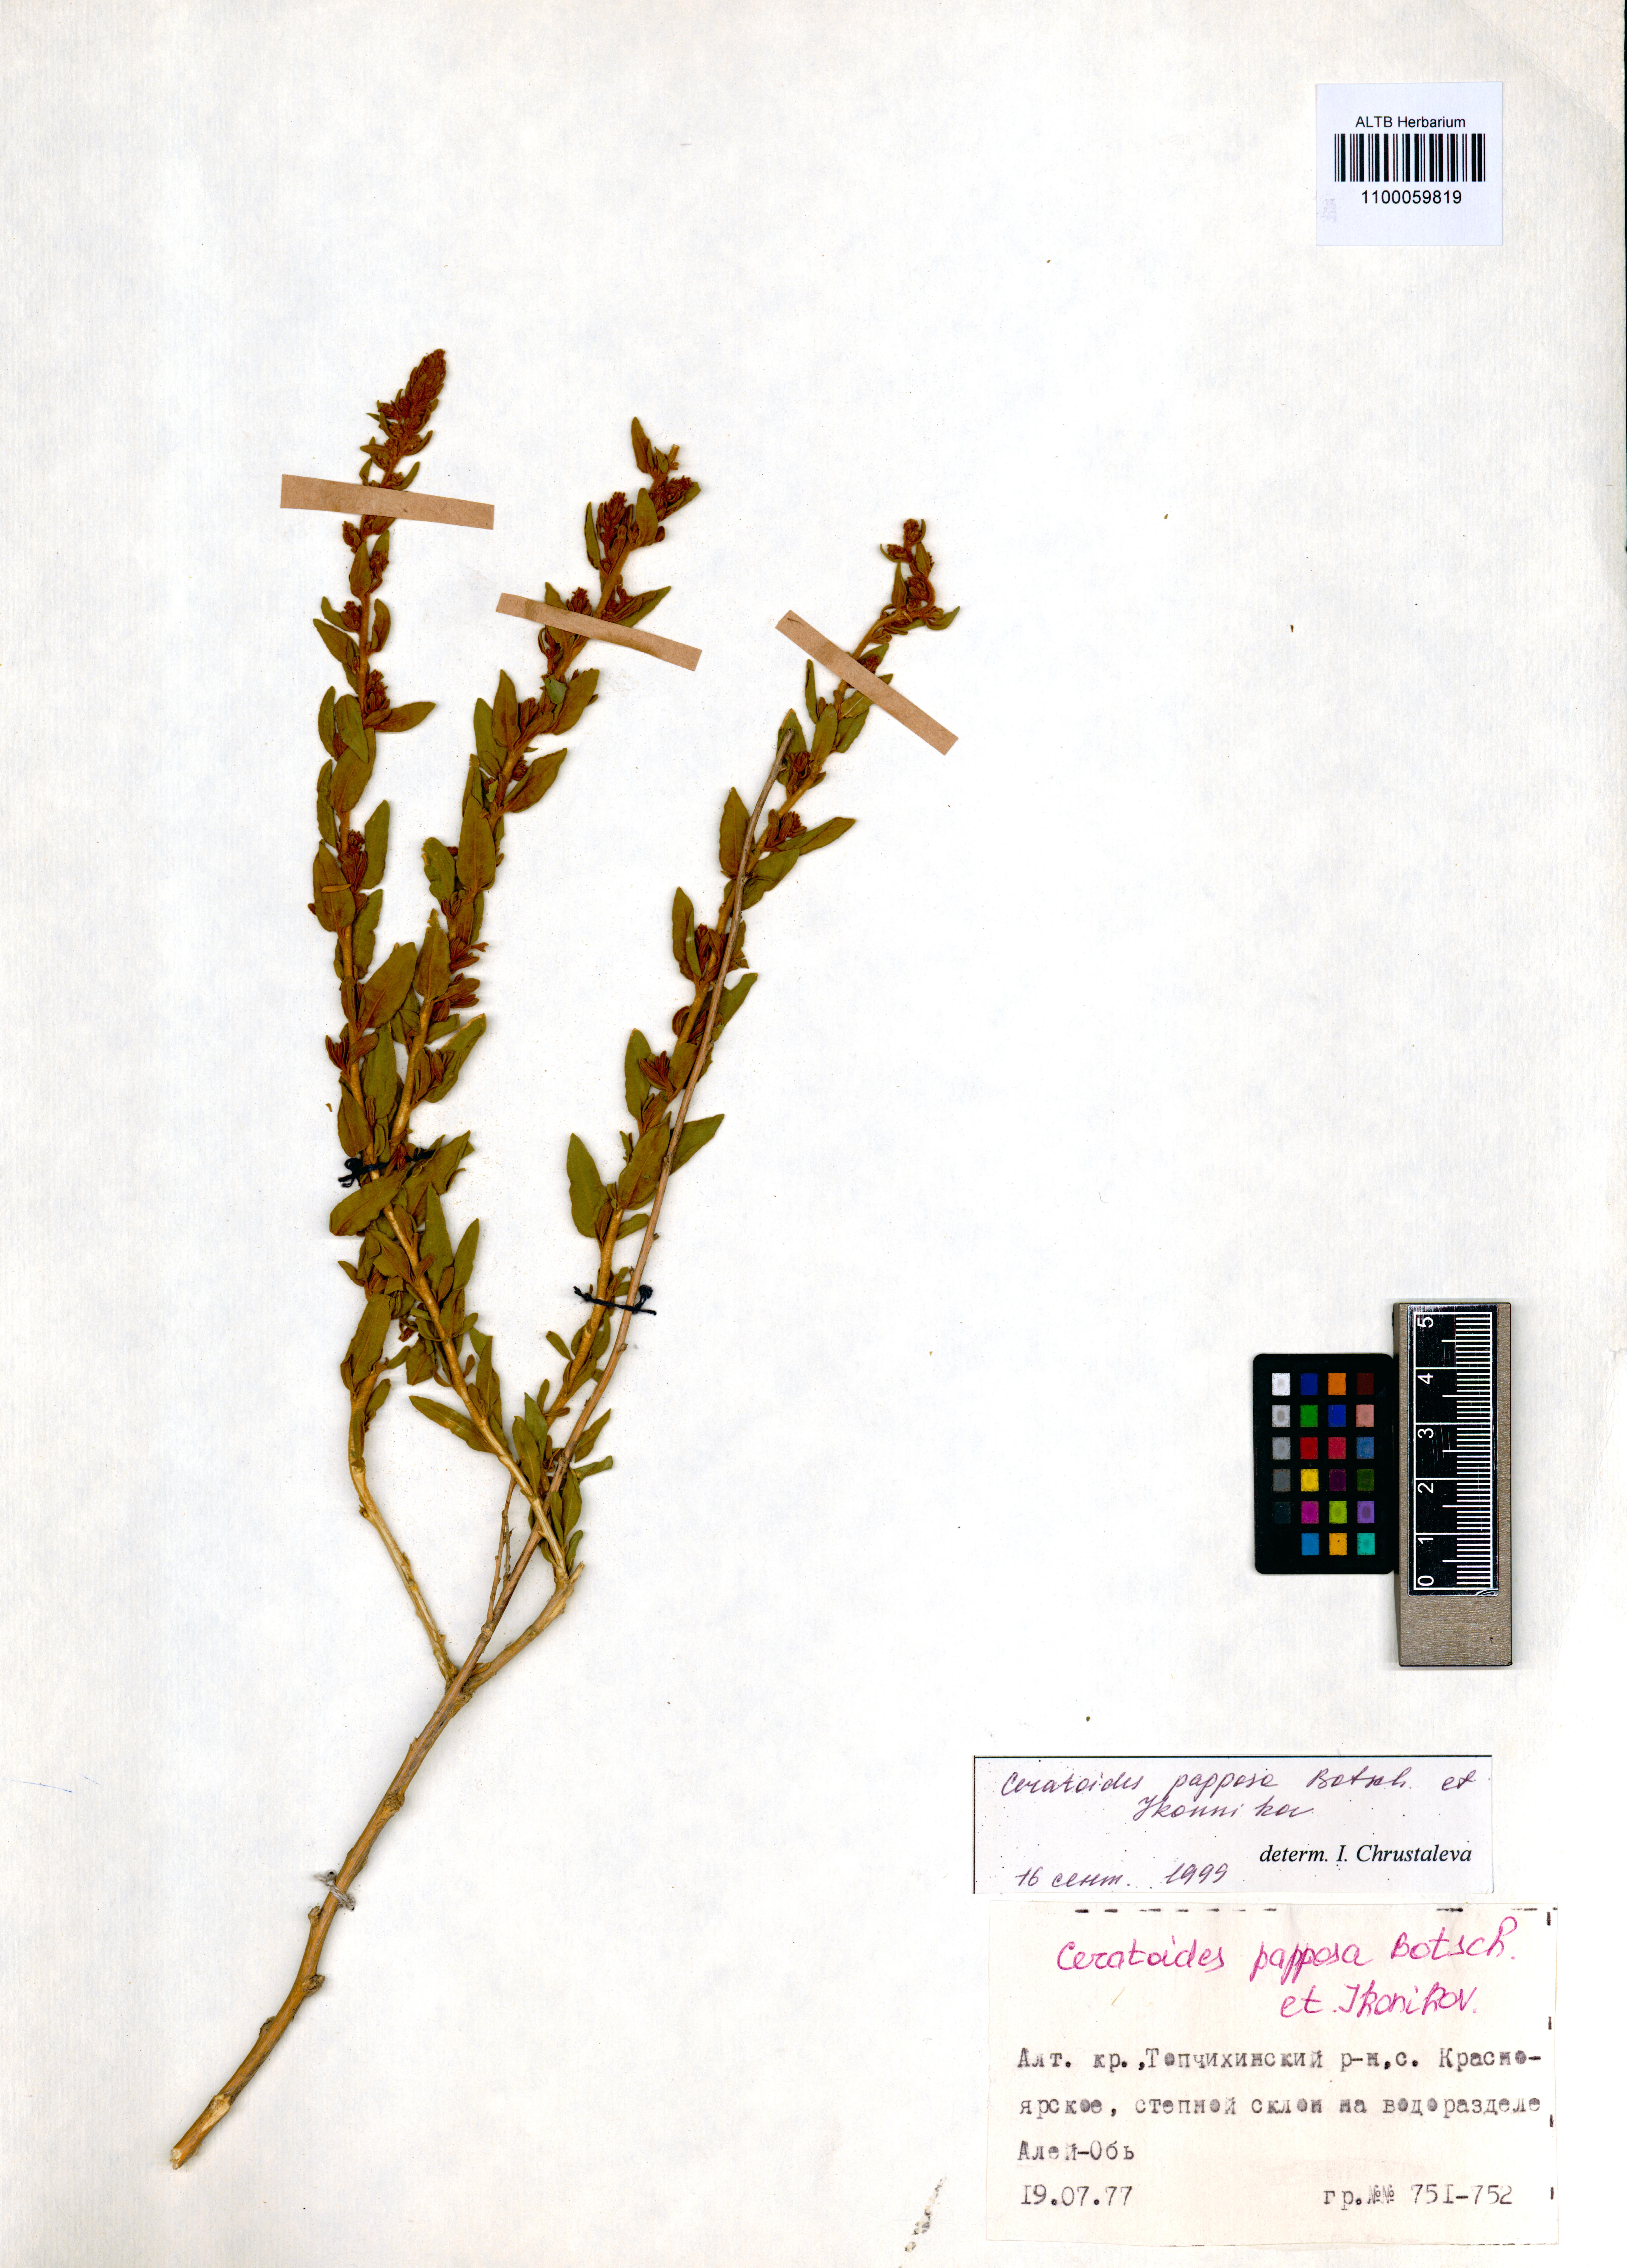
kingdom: Plantae
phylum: Tracheophyta
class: Magnoliopsida
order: Caryophyllales
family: Amaranthaceae
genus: Krascheninnikovia
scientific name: Krascheninnikovia ceratoides
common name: Pamirian winterfat
